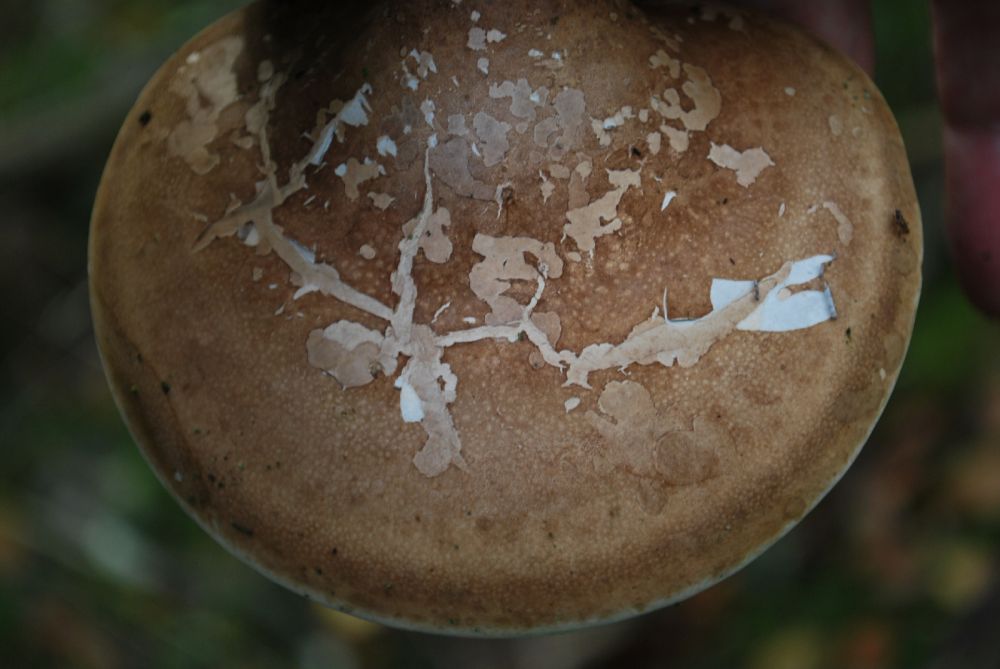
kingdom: Fungi
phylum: Basidiomycota
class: Agaricomycetes
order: Polyporales
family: Fomitopsidaceae
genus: Fomitopsis
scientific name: Fomitopsis betulina
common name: birkeporesvamp
